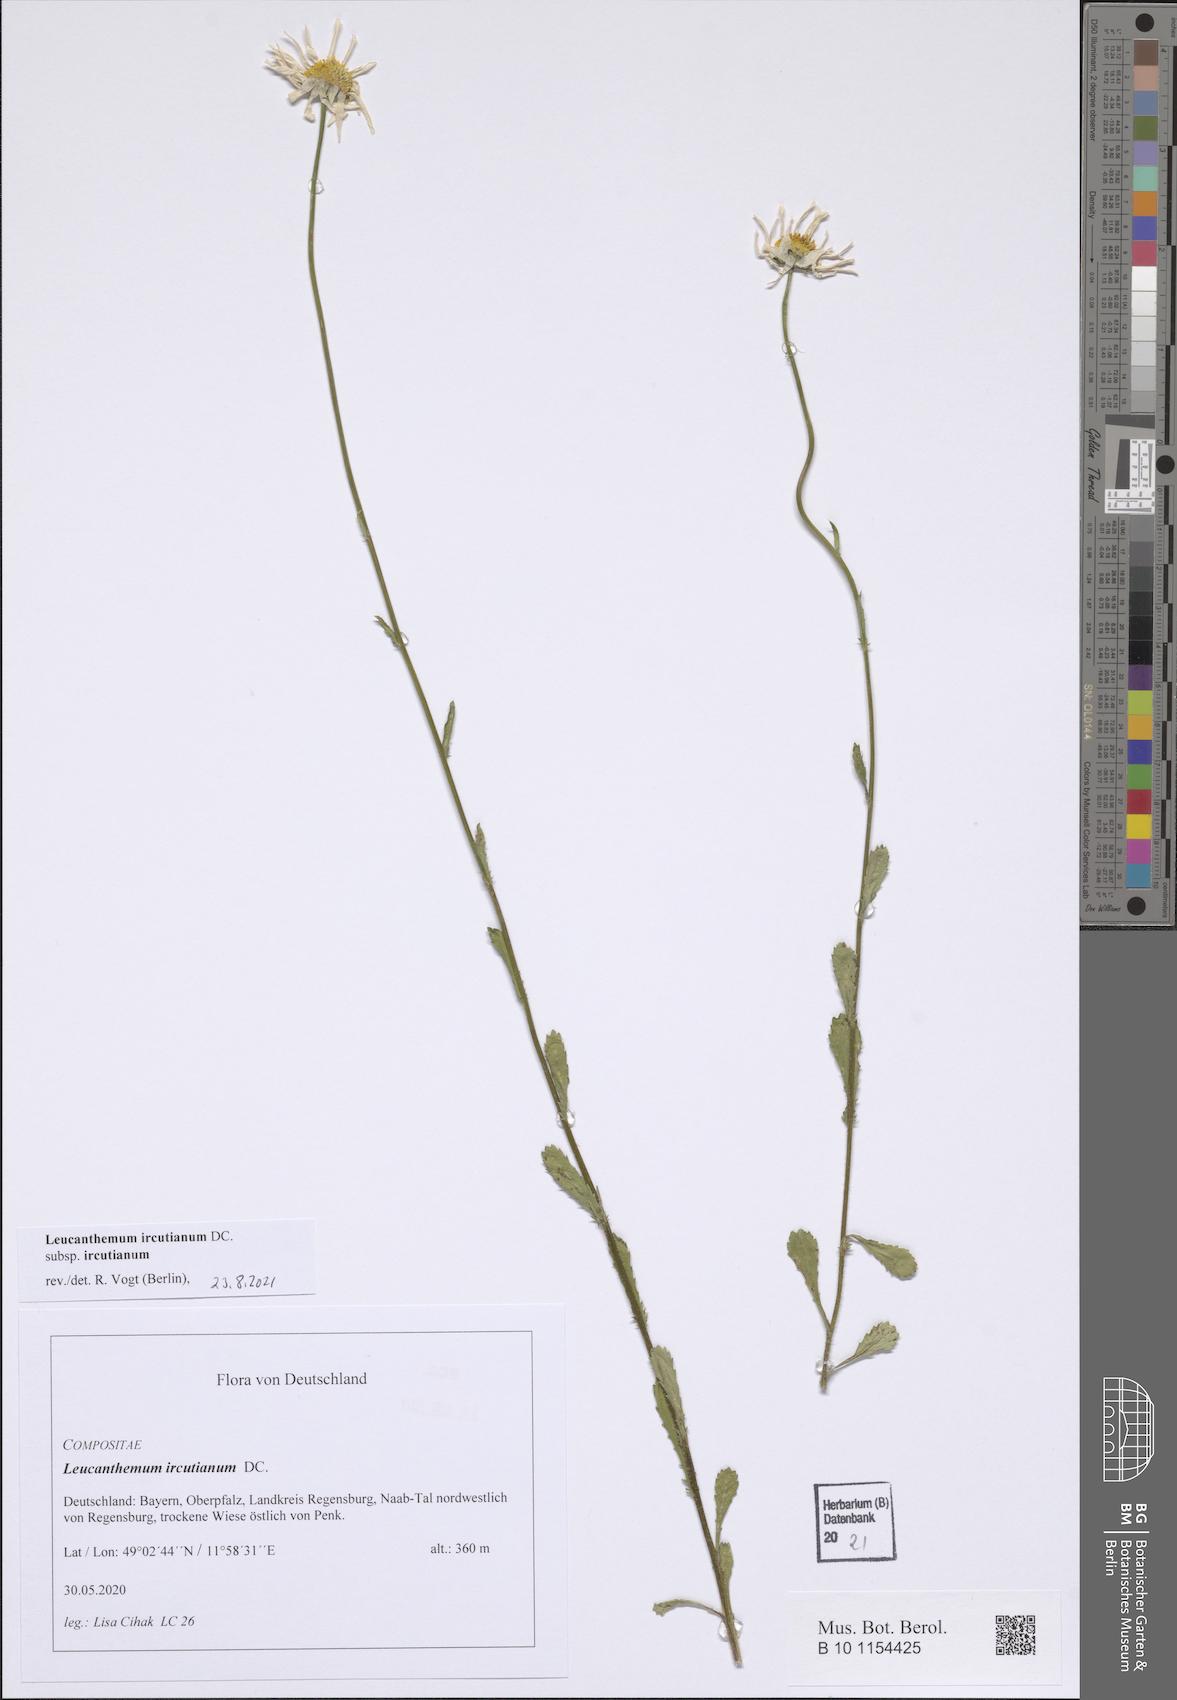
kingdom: Plantae
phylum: Tracheophyta
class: Magnoliopsida
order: Asterales
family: Asteraceae
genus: Leucanthemum
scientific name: Leucanthemum ircutianum
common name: Daisy
